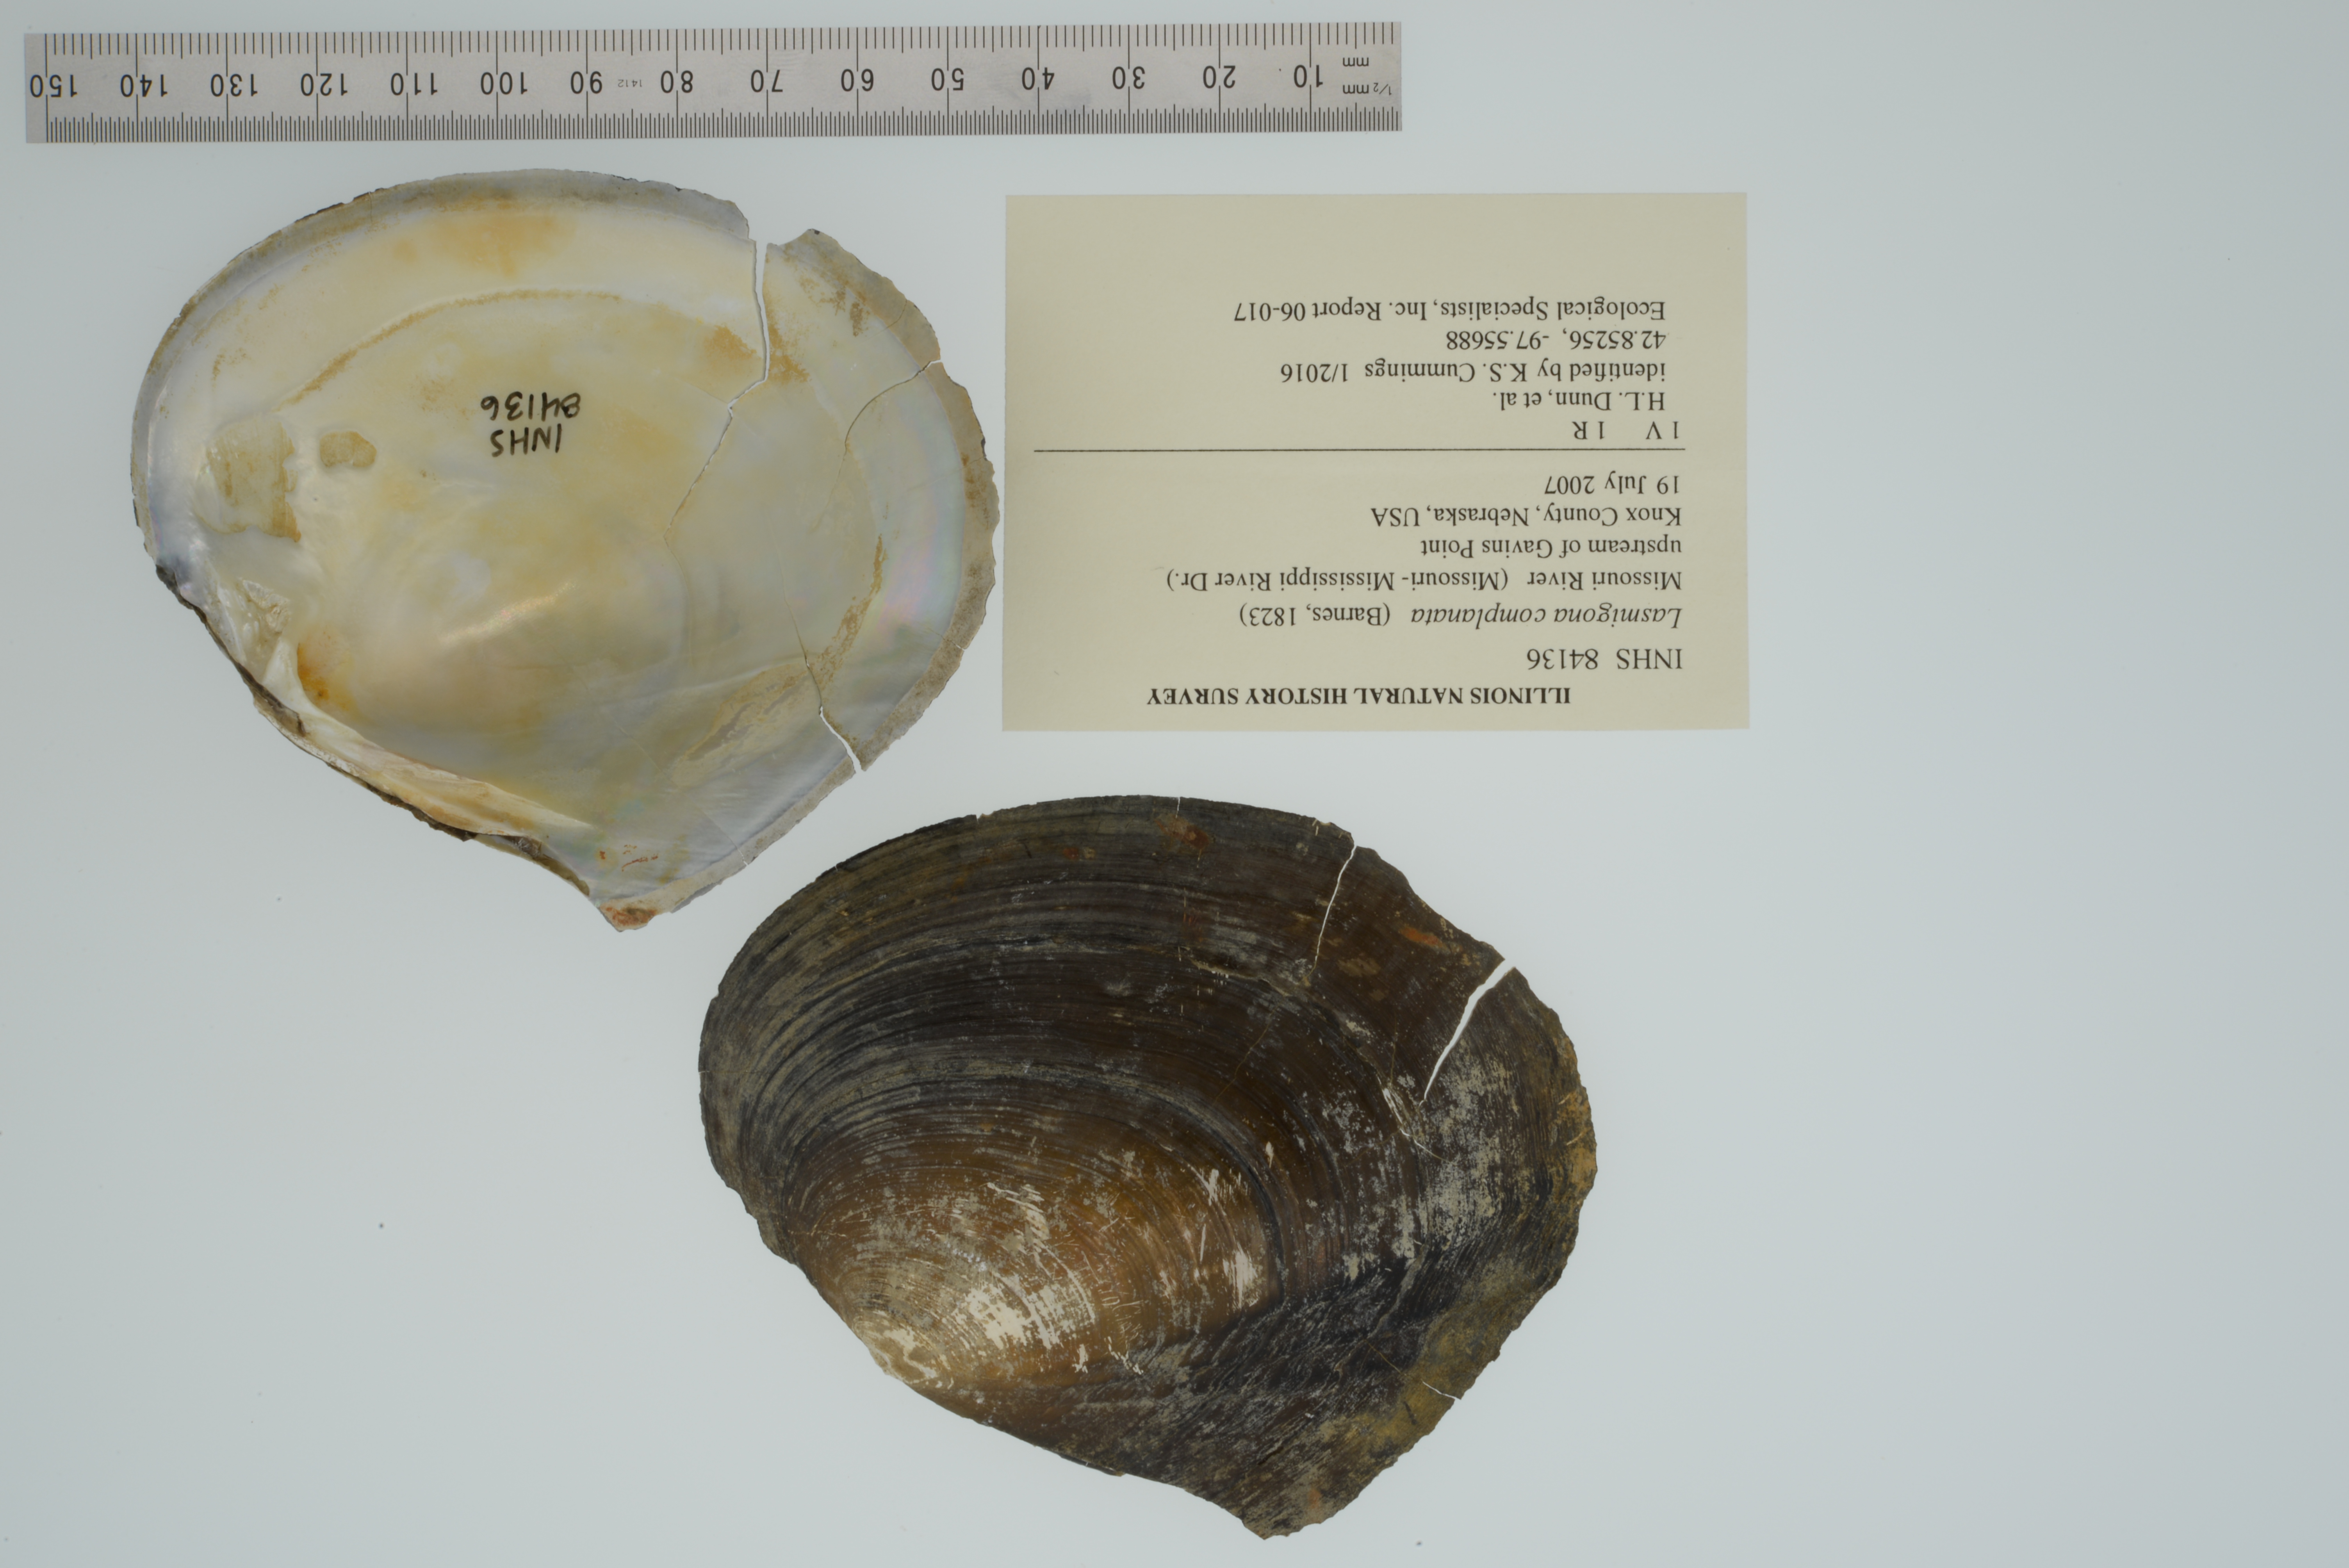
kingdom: Animalia
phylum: Mollusca
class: Bivalvia
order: Unionida
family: Unionidae
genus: Lasmigona
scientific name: Lasmigona complanata
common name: White heelsplitter
